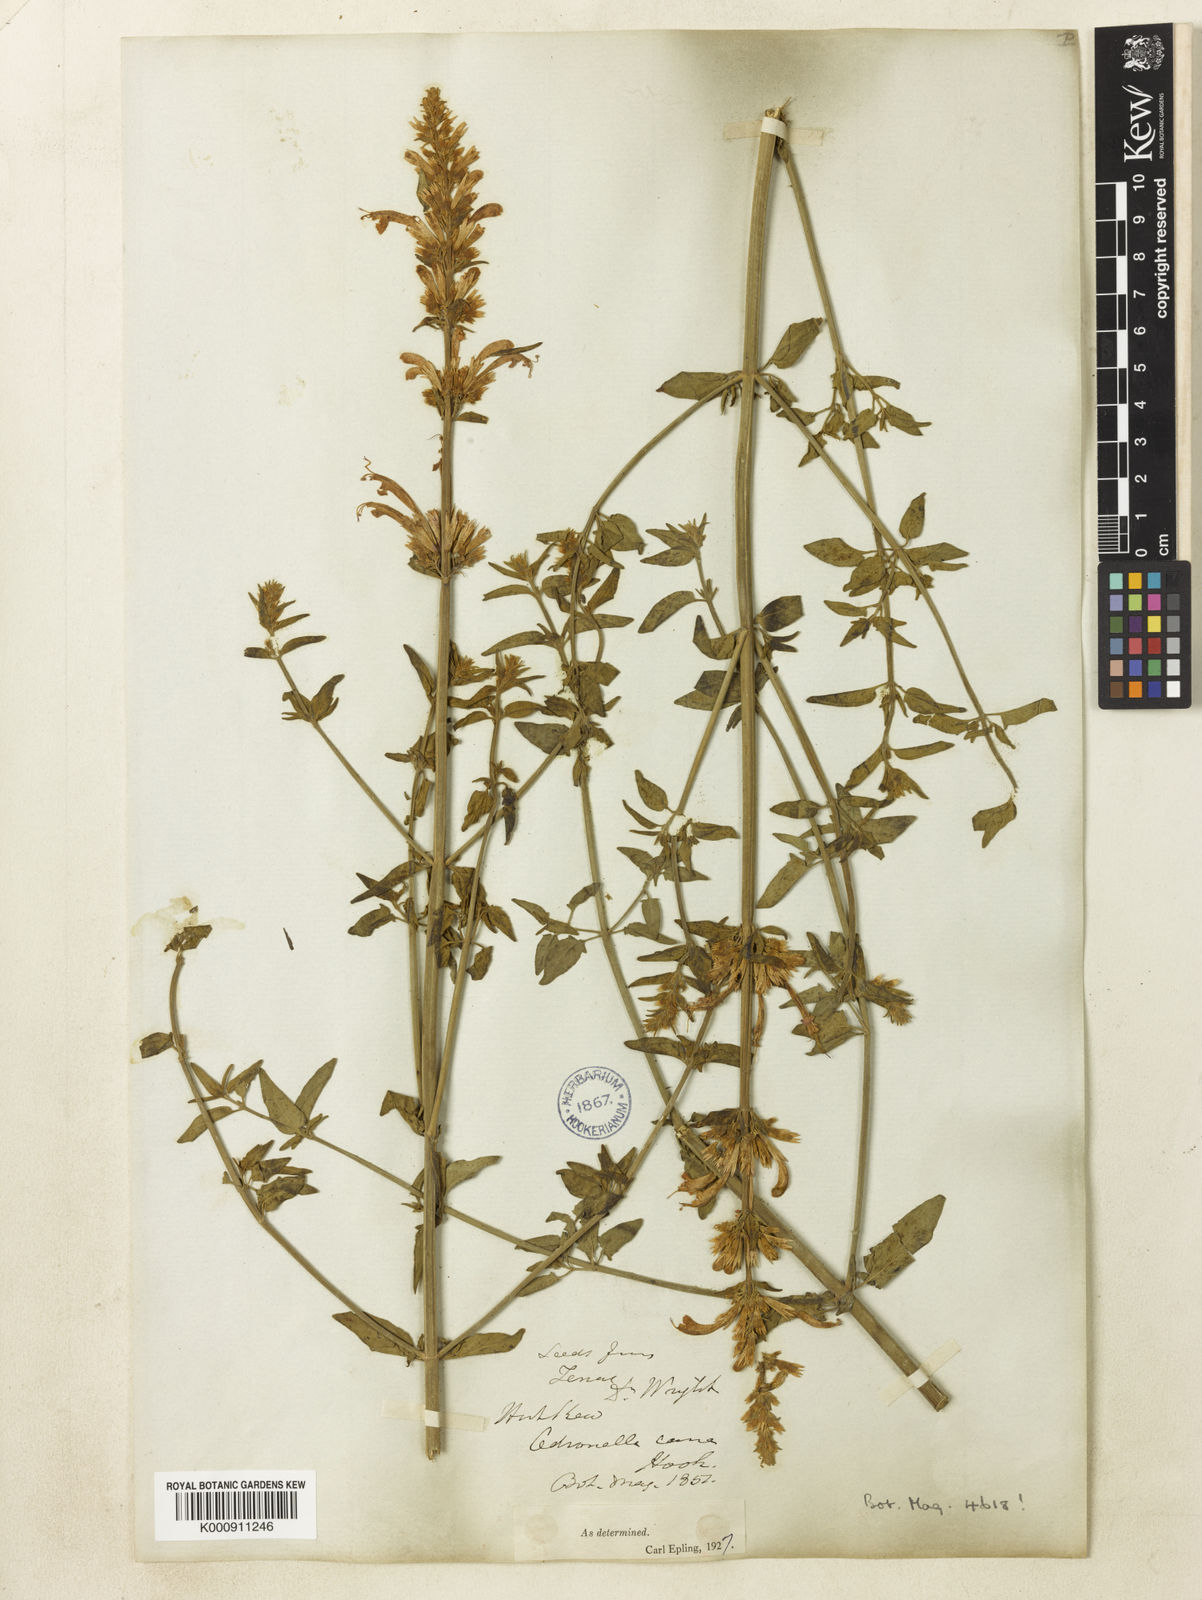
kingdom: Plantae
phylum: Tracheophyta
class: Magnoliopsida
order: Lamiales
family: Lamiaceae
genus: Agastache
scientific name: Agastache cana
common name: Double bubble mint
